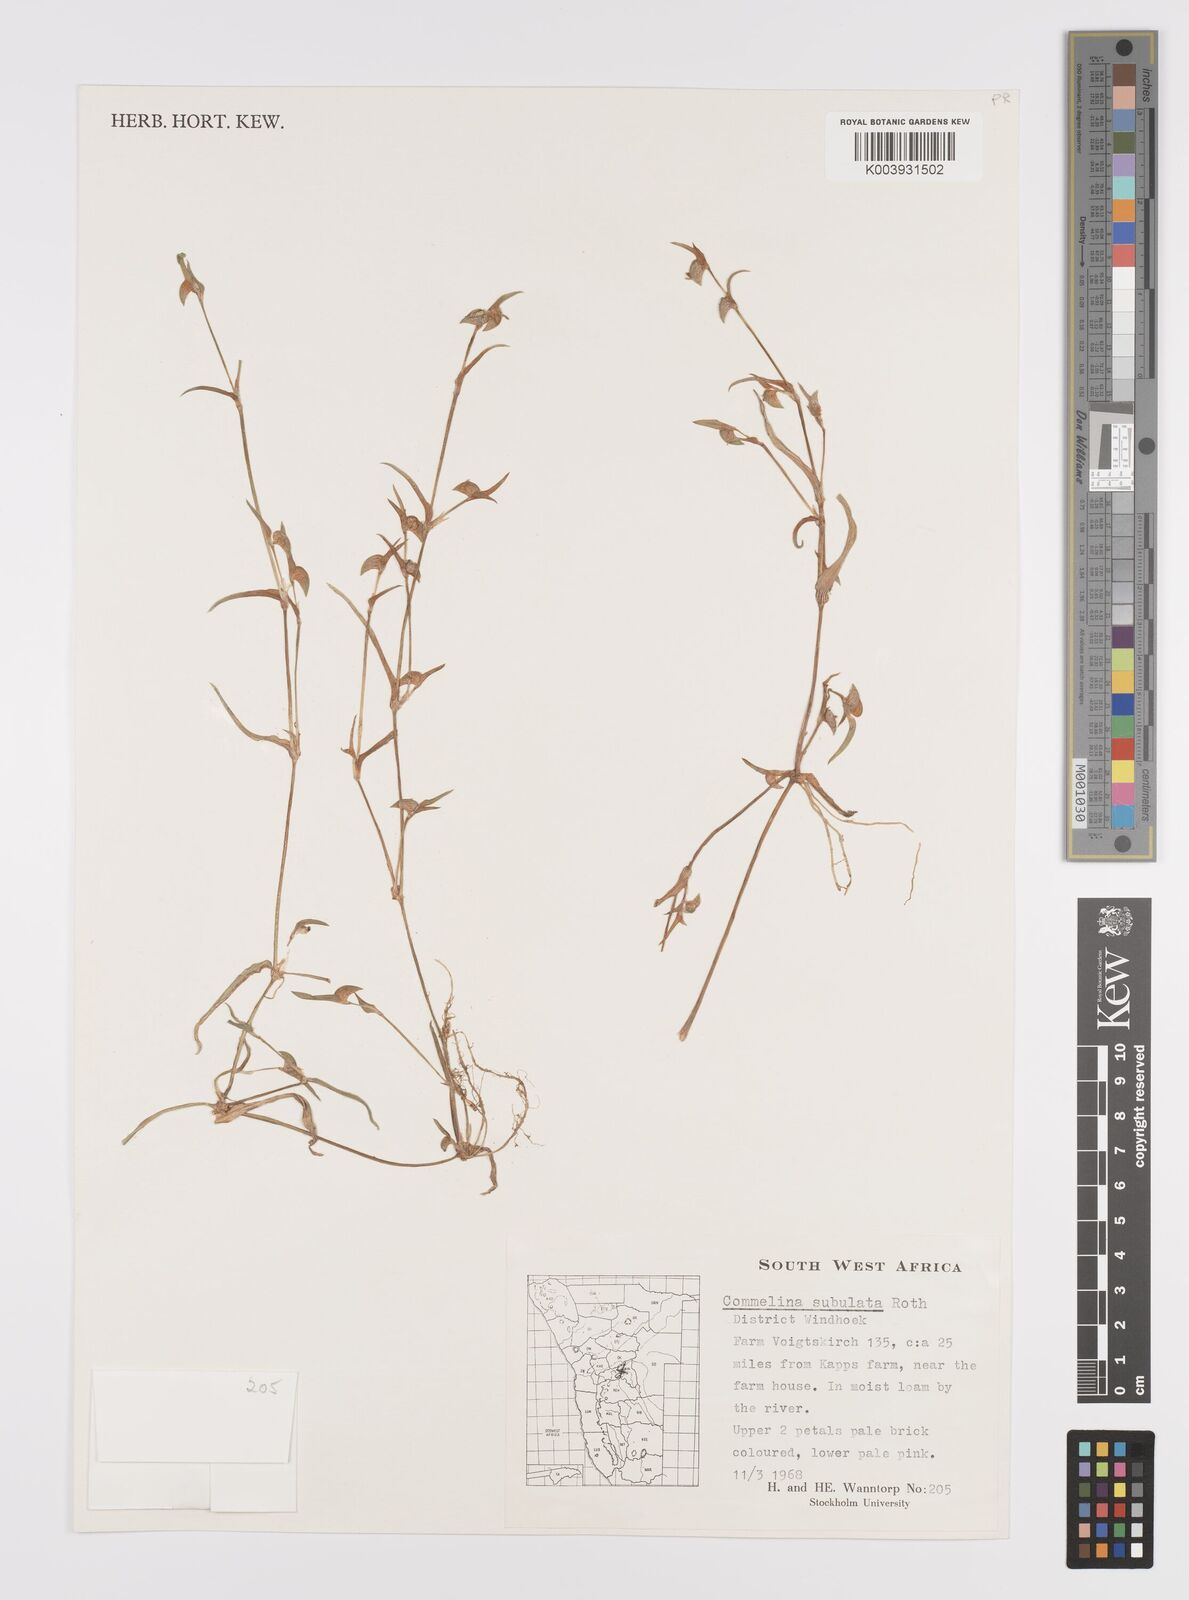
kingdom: Plantae
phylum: Tracheophyta
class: Liliopsida
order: Commelinales
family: Commelinaceae
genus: Commelina
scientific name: Commelina subulata
